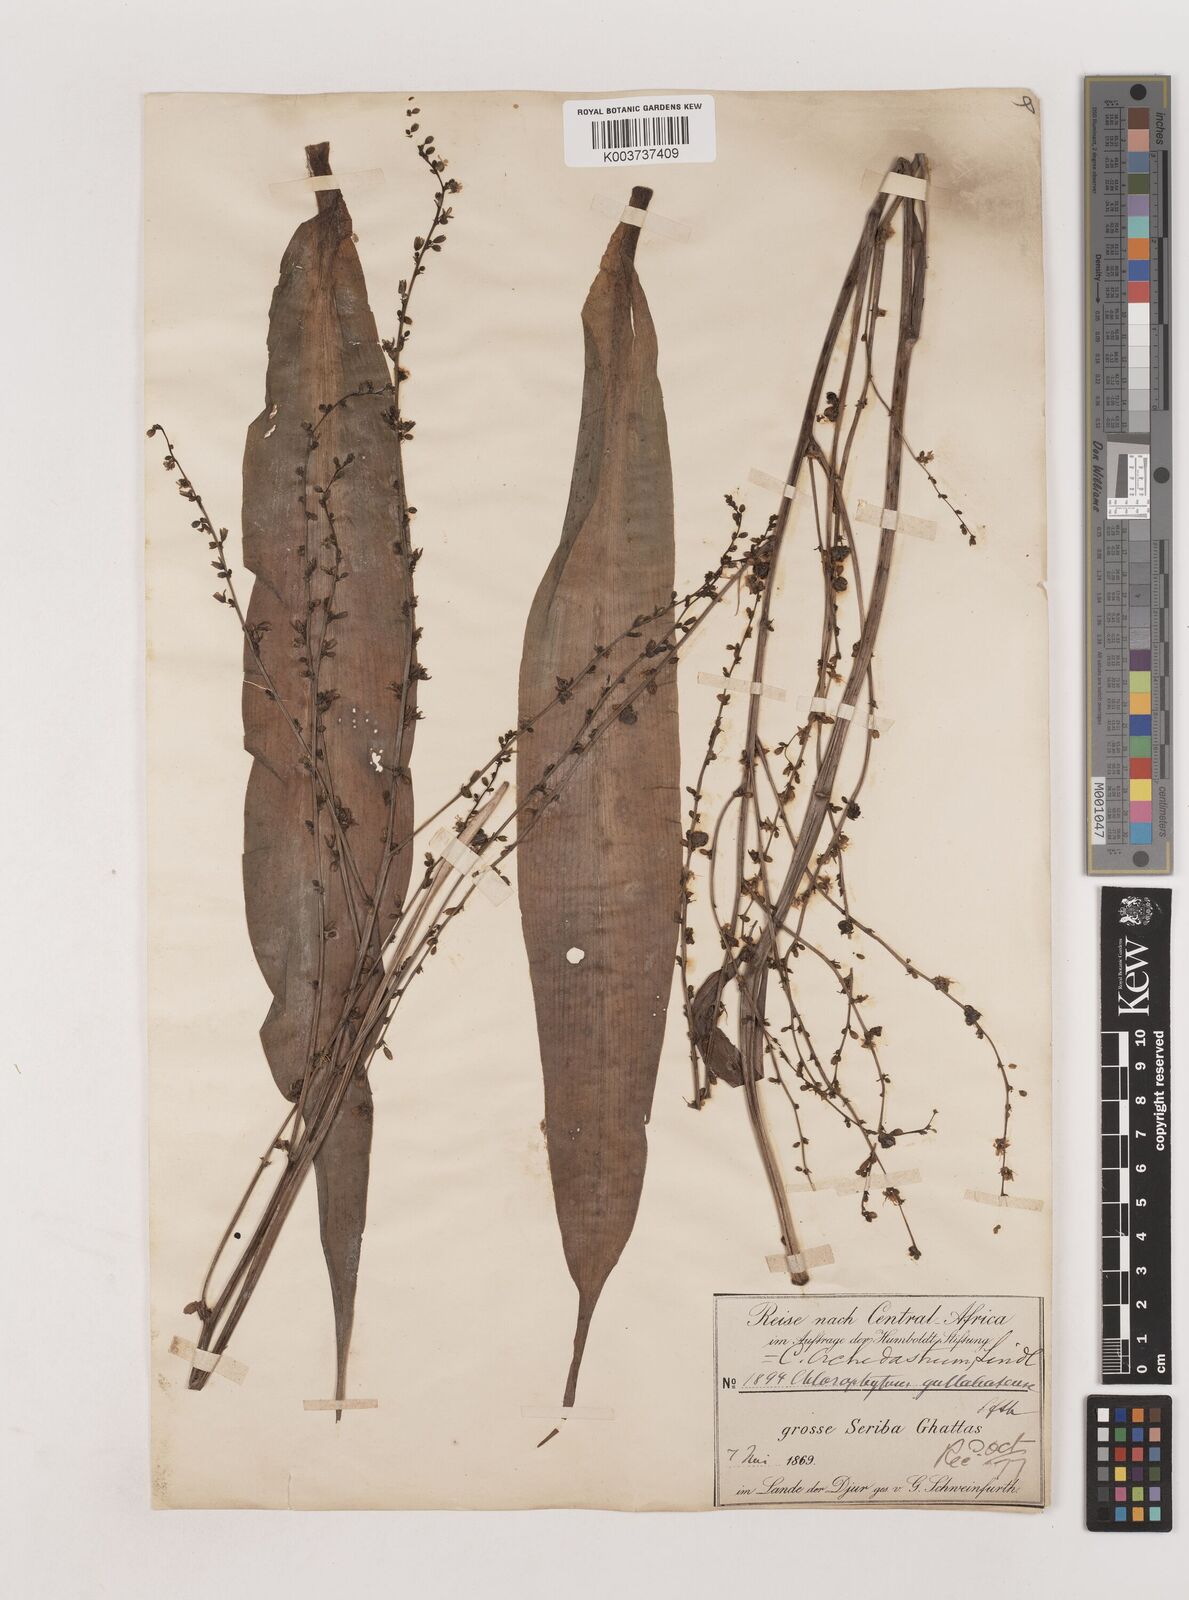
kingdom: Plantae
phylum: Tracheophyta
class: Liliopsida
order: Asparagales
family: Asparagaceae
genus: Chlorophytum
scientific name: Chlorophytum gallabatense
